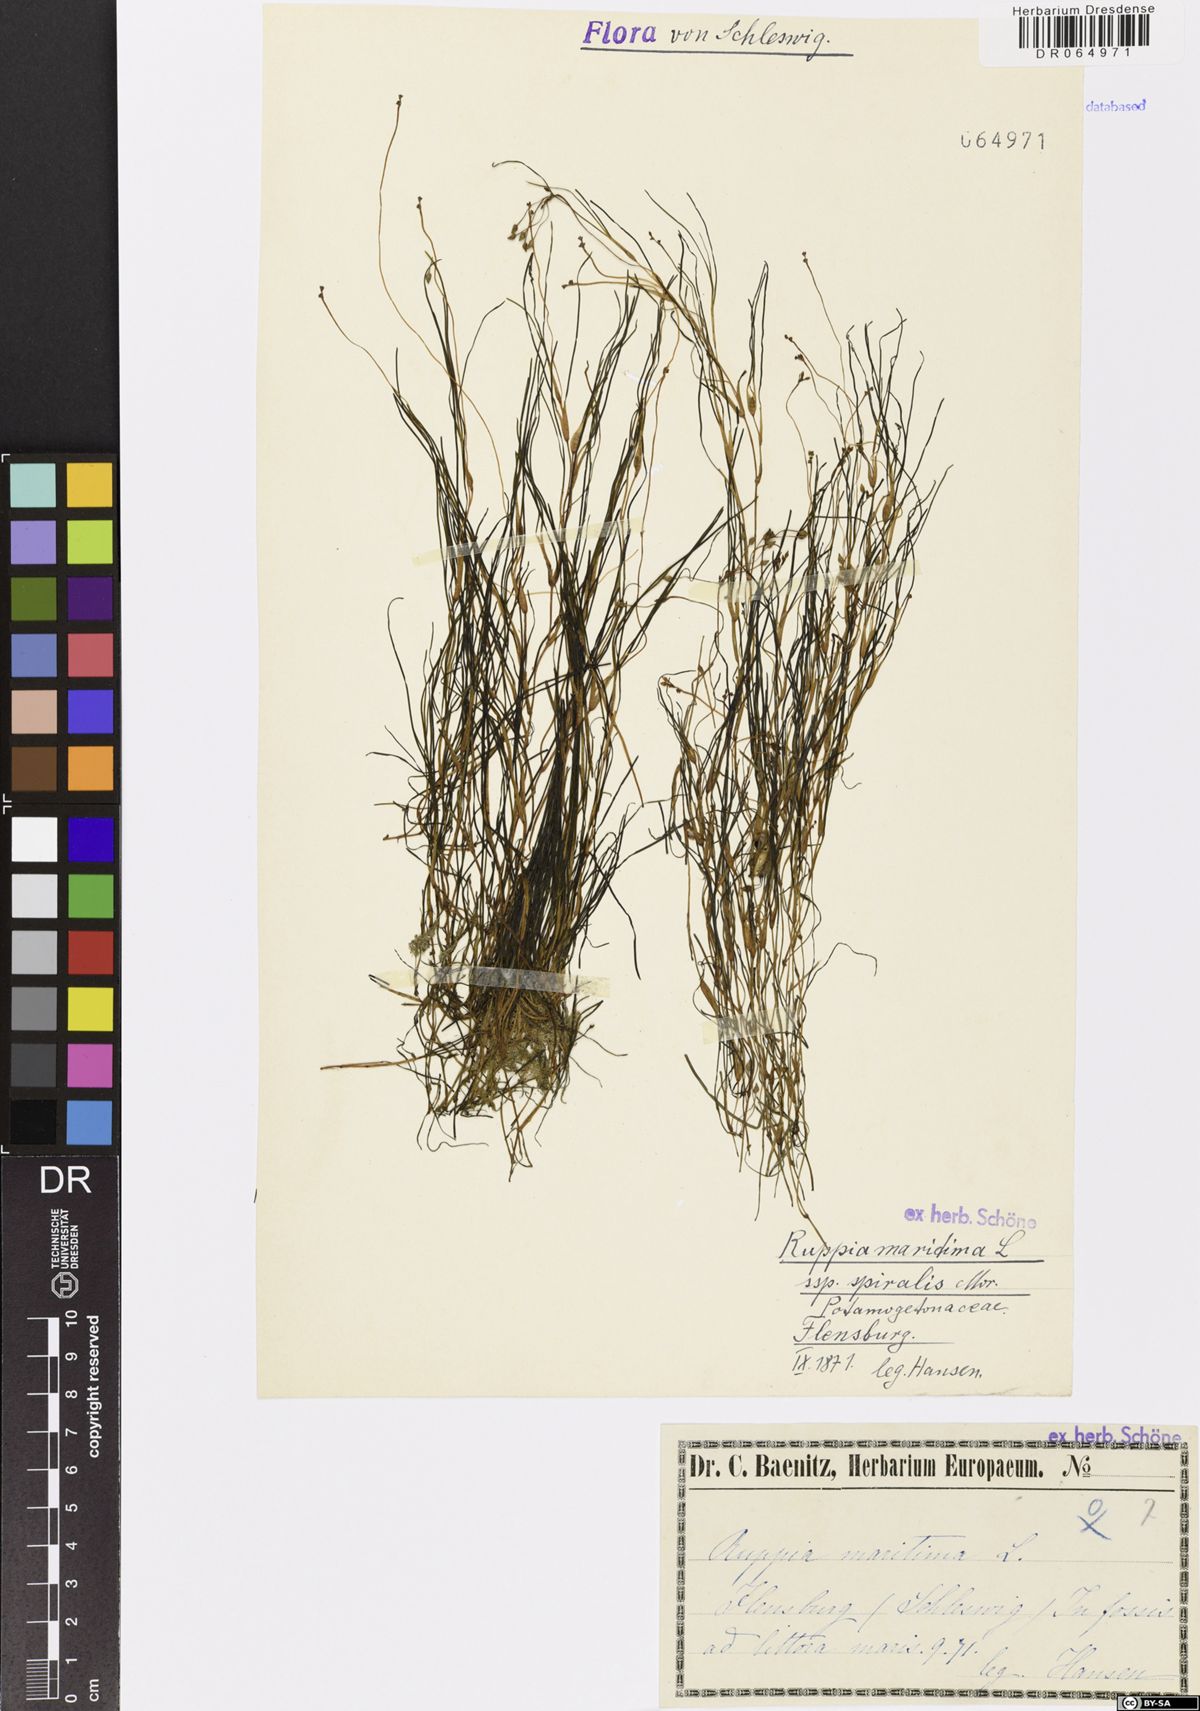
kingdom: Plantae
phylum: Tracheophyta
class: Liliopsida
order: Alismatales
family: Ruppiaceae
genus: Ruppia
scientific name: Ruppia maritima
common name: Beaked tasselweed
